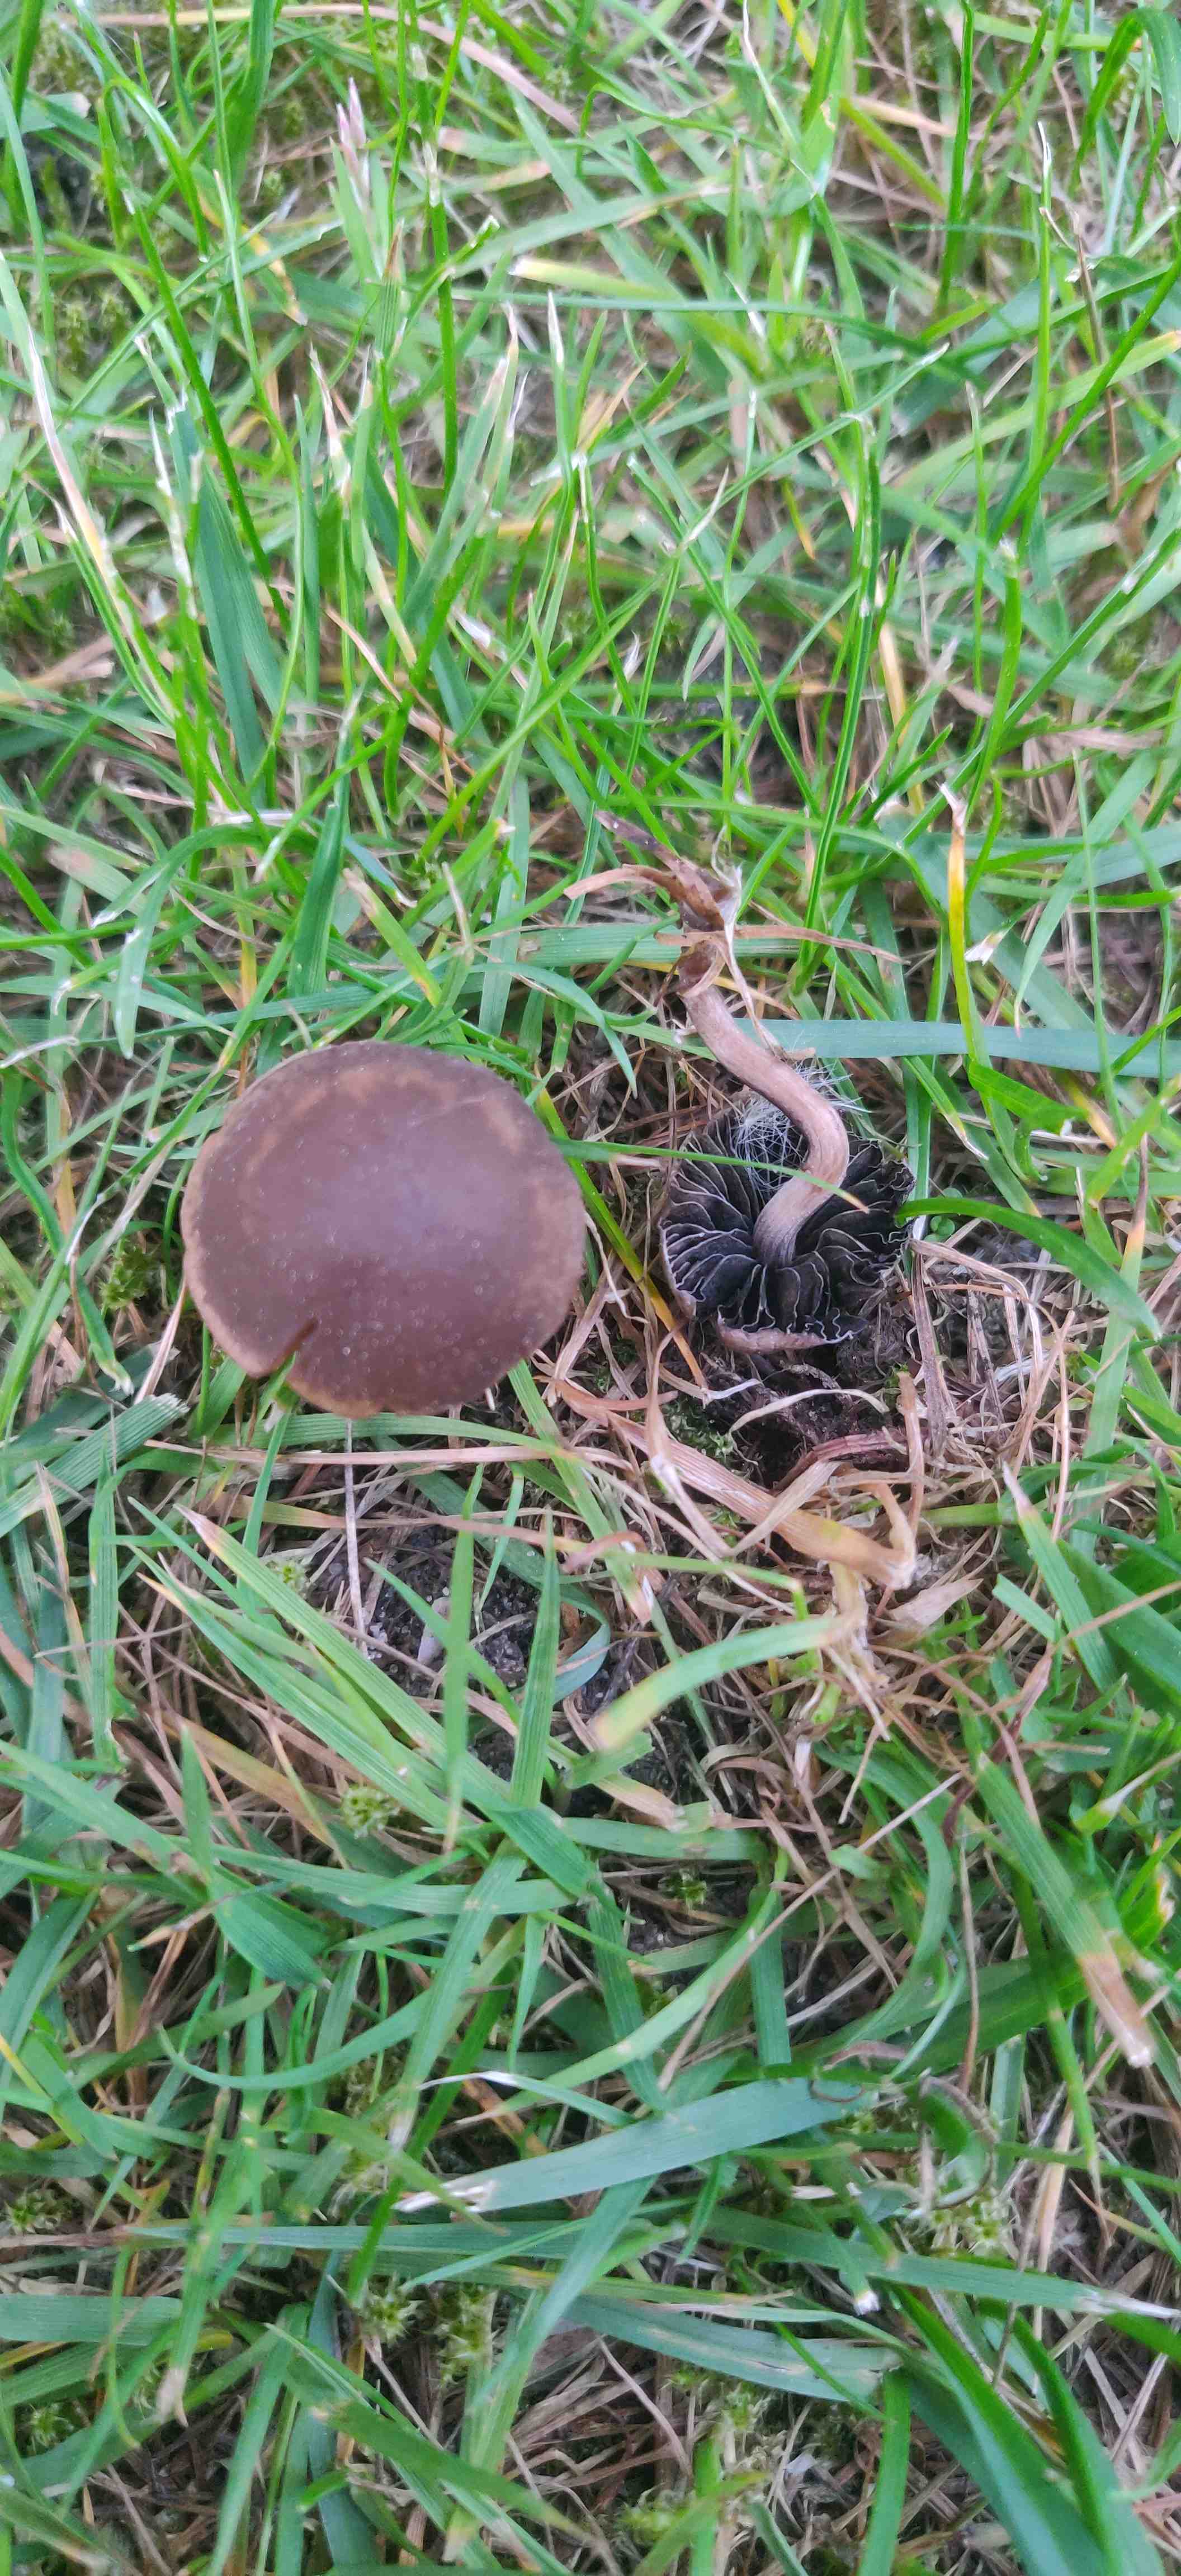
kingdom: Fungi
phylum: Basidiomycota
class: Agaricomycetes
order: Agaricales
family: Bolbitiaceae
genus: Panaeolus
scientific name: Panaeolus fimicola
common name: tidlig glanshat
